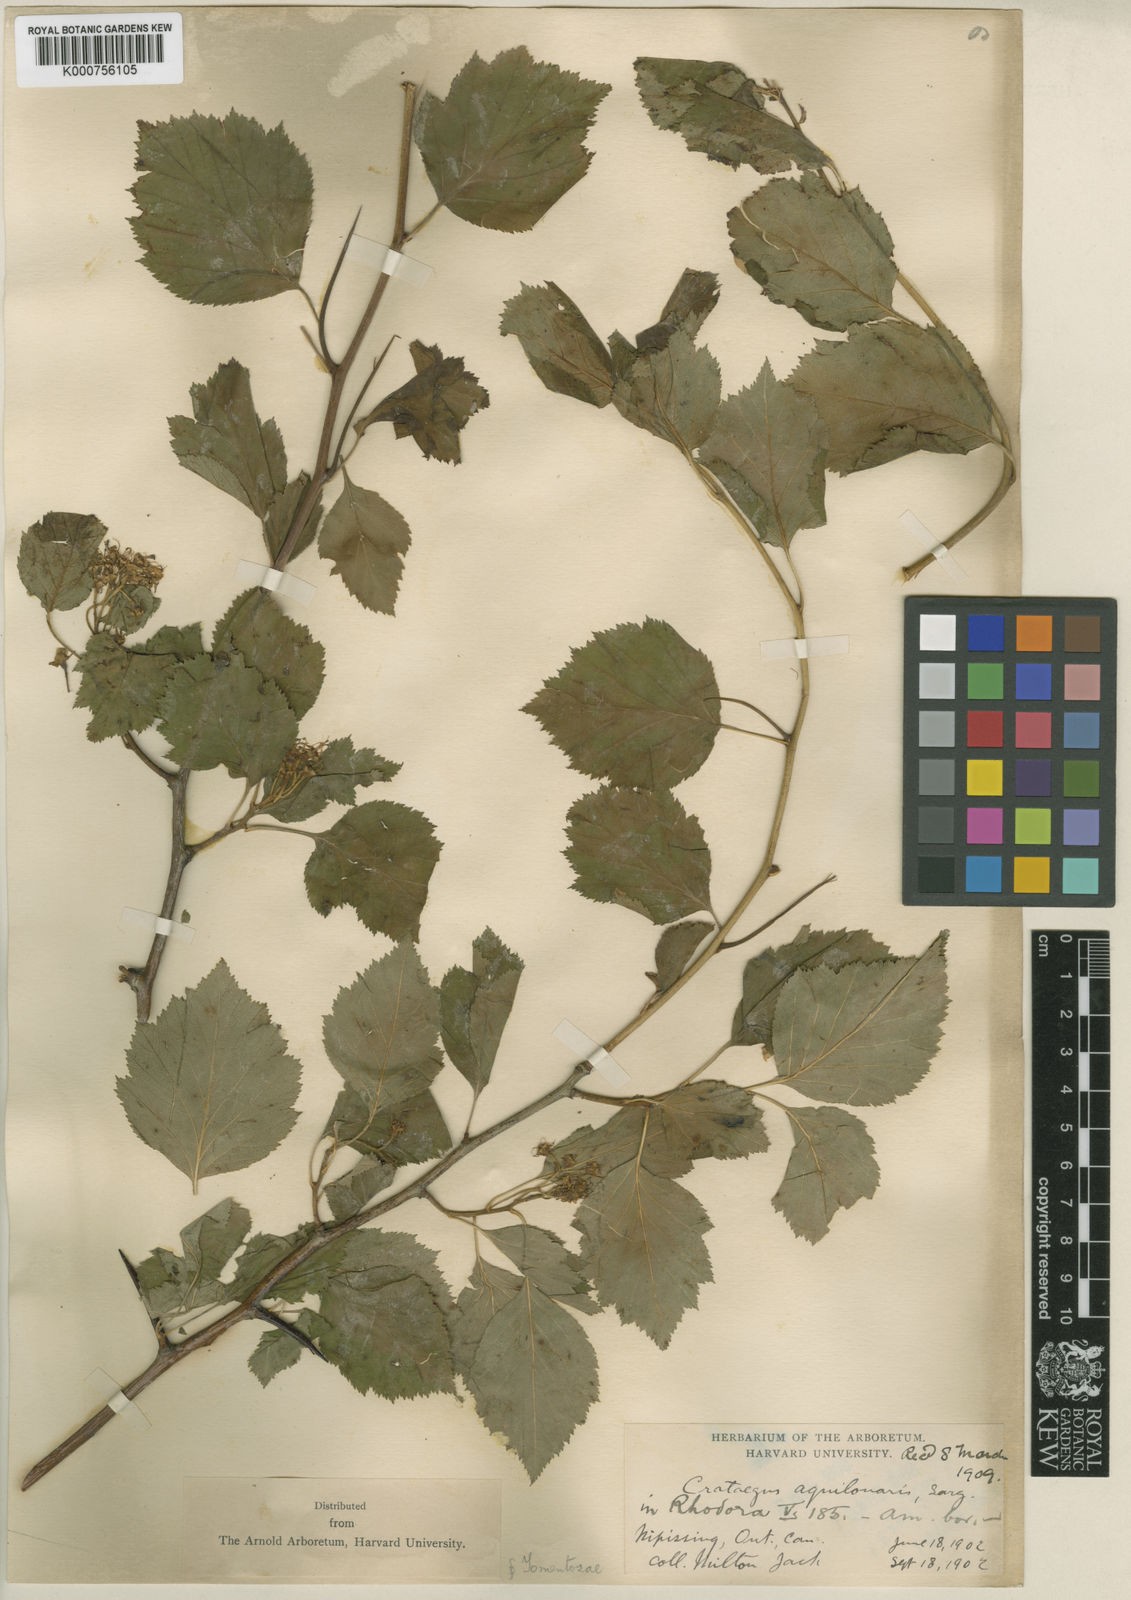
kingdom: Plantae
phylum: Tracheophyta
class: Magnoliopsida
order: Rosales
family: Rosaceae
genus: Crataegus
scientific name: Crataegus aquilonaris
